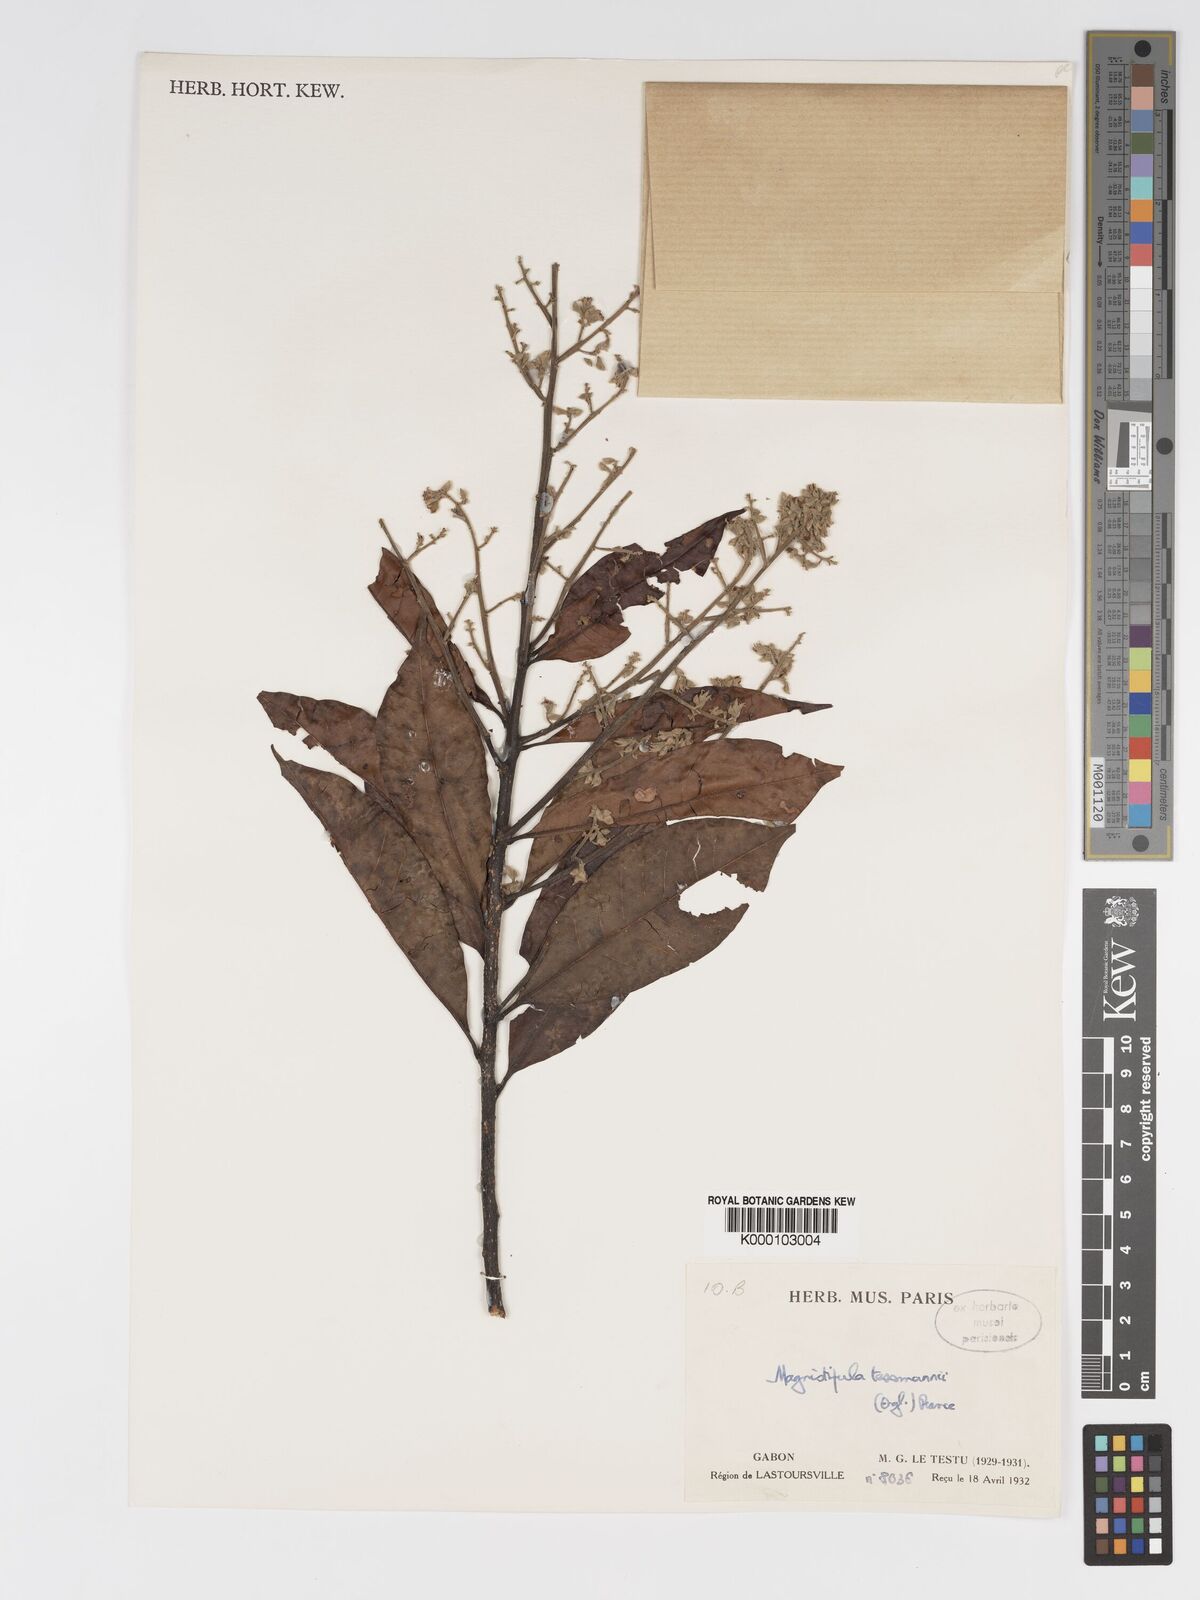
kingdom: Plantae
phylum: Tracheophyta
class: Magnoliopsida
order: Malpighiales
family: Chrysobalanaceae
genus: Magnistipula
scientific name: Magnistipula tessmannii
